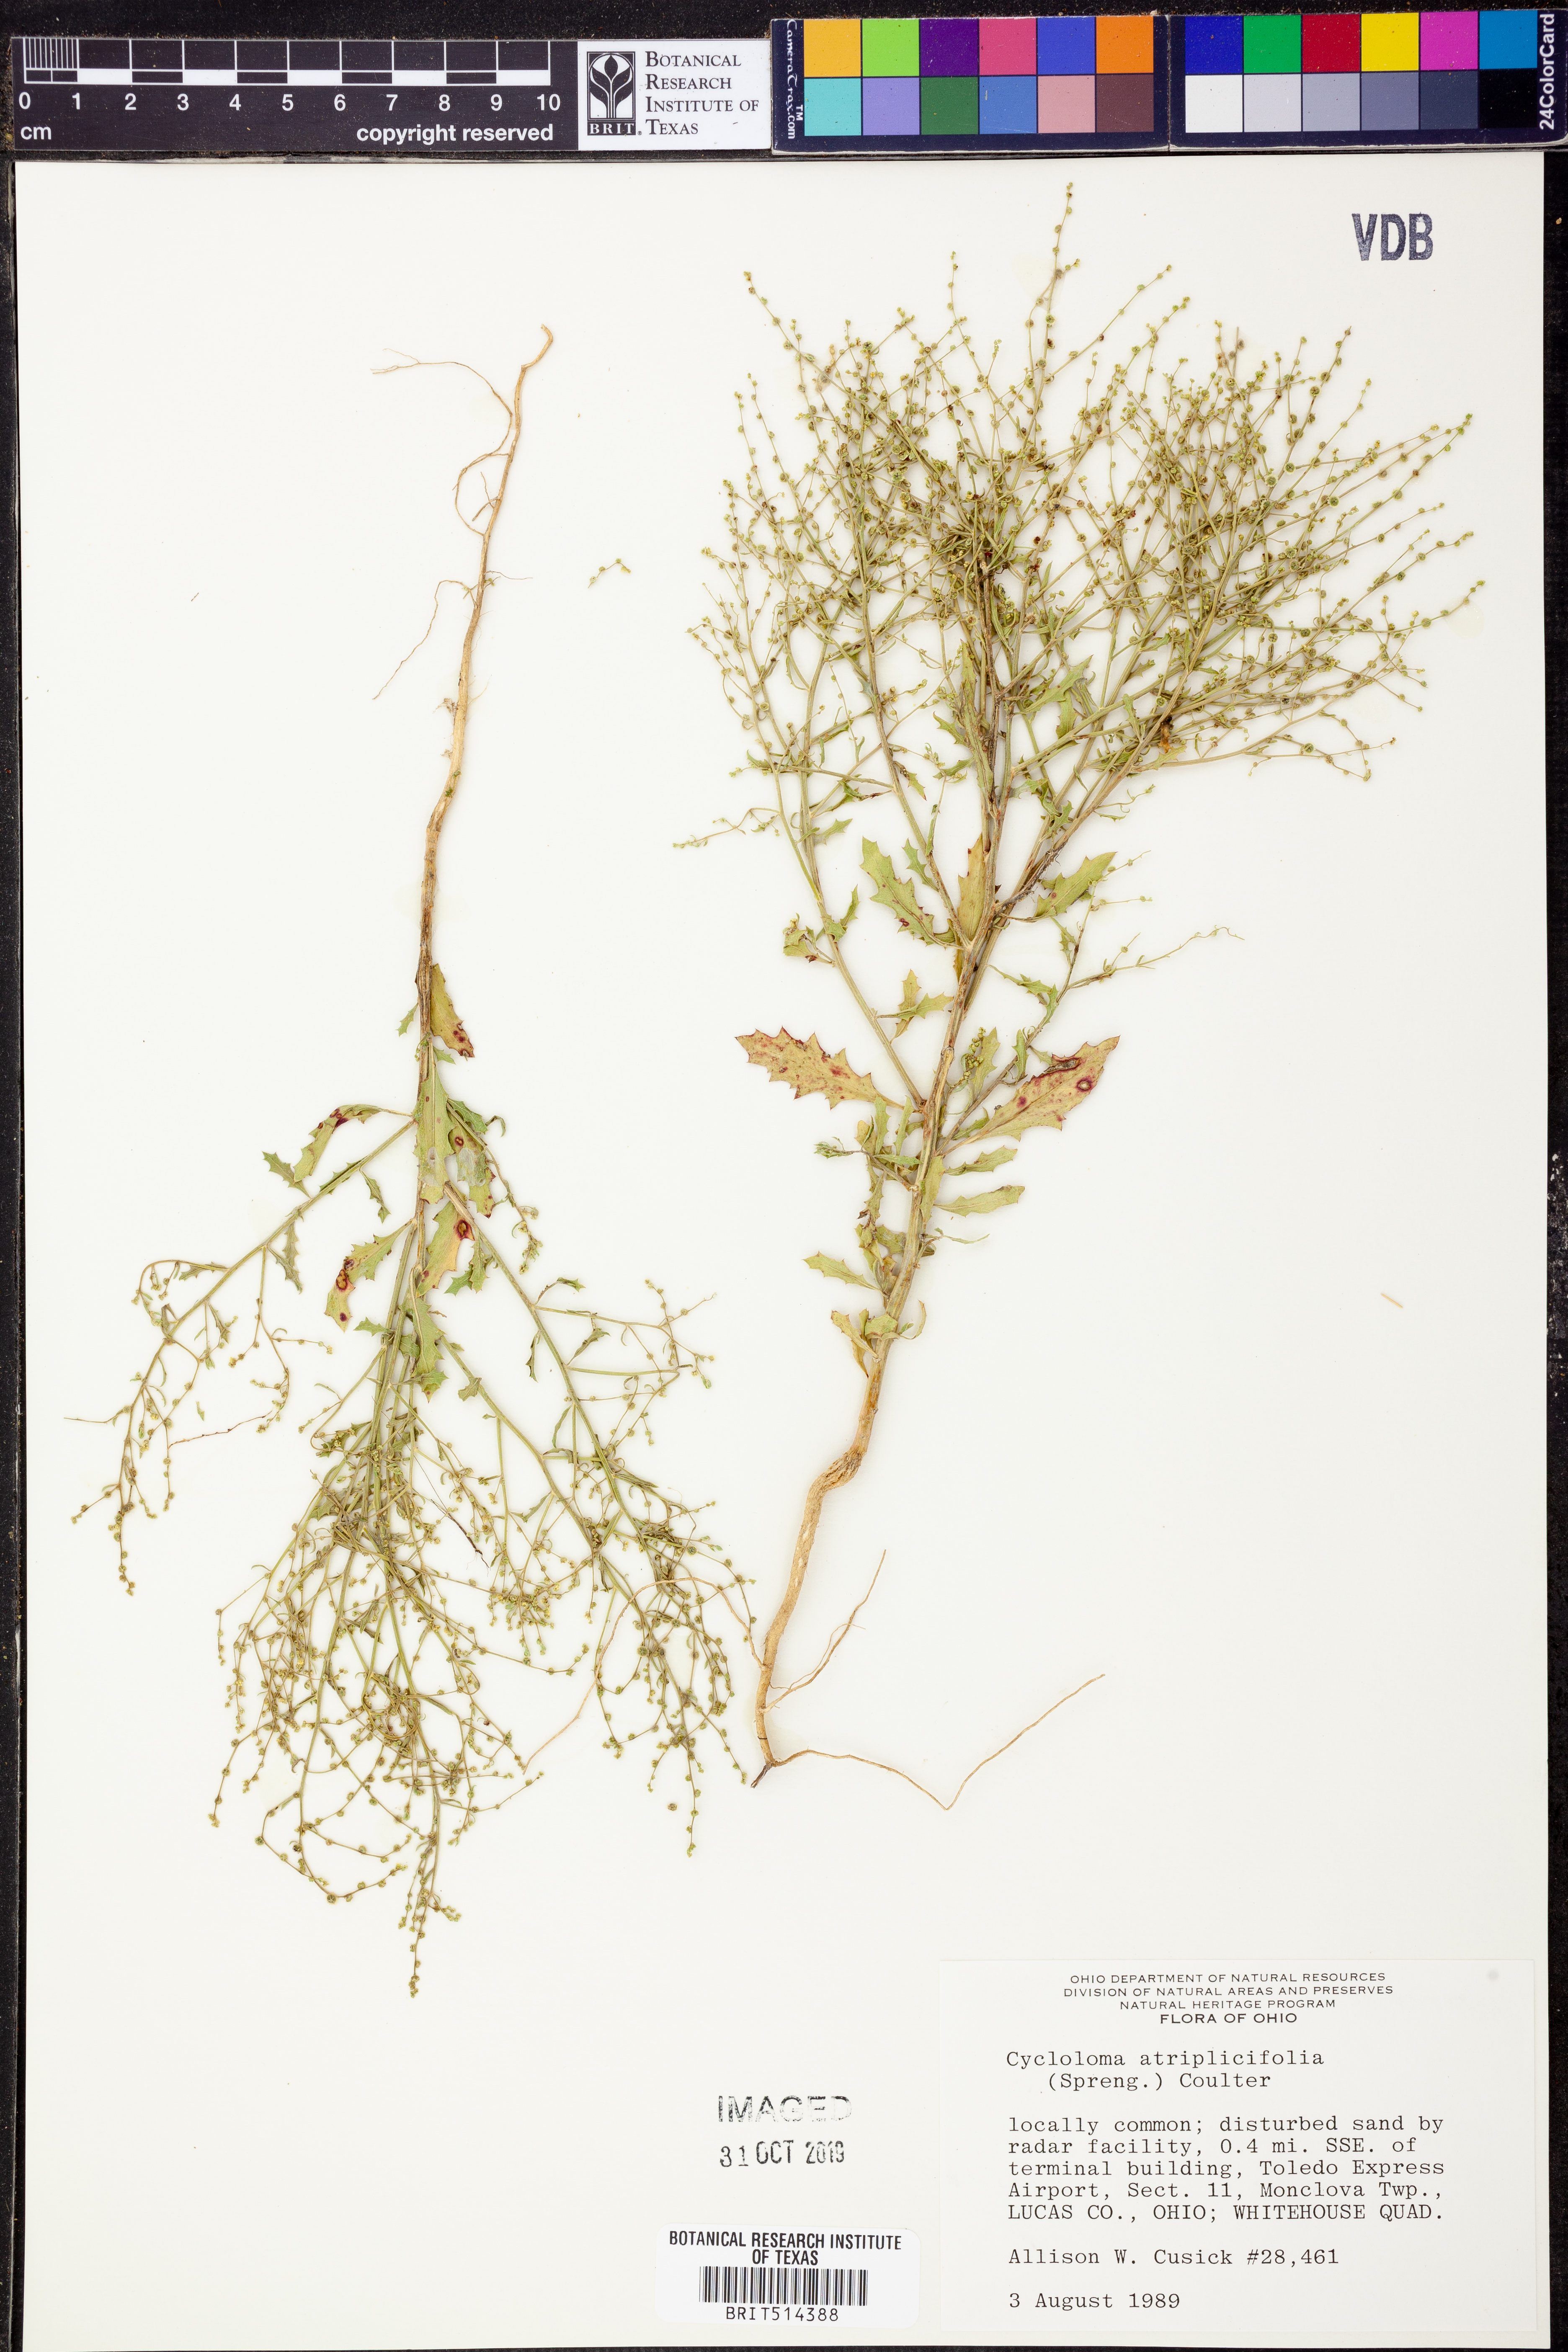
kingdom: Plantae
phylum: Tracheophyta
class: Magnoliopsida
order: Caryophyllales
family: Amaranthaceae
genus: Dysphania
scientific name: Dysphania atriplicifolia
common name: Plains tumbleweed
